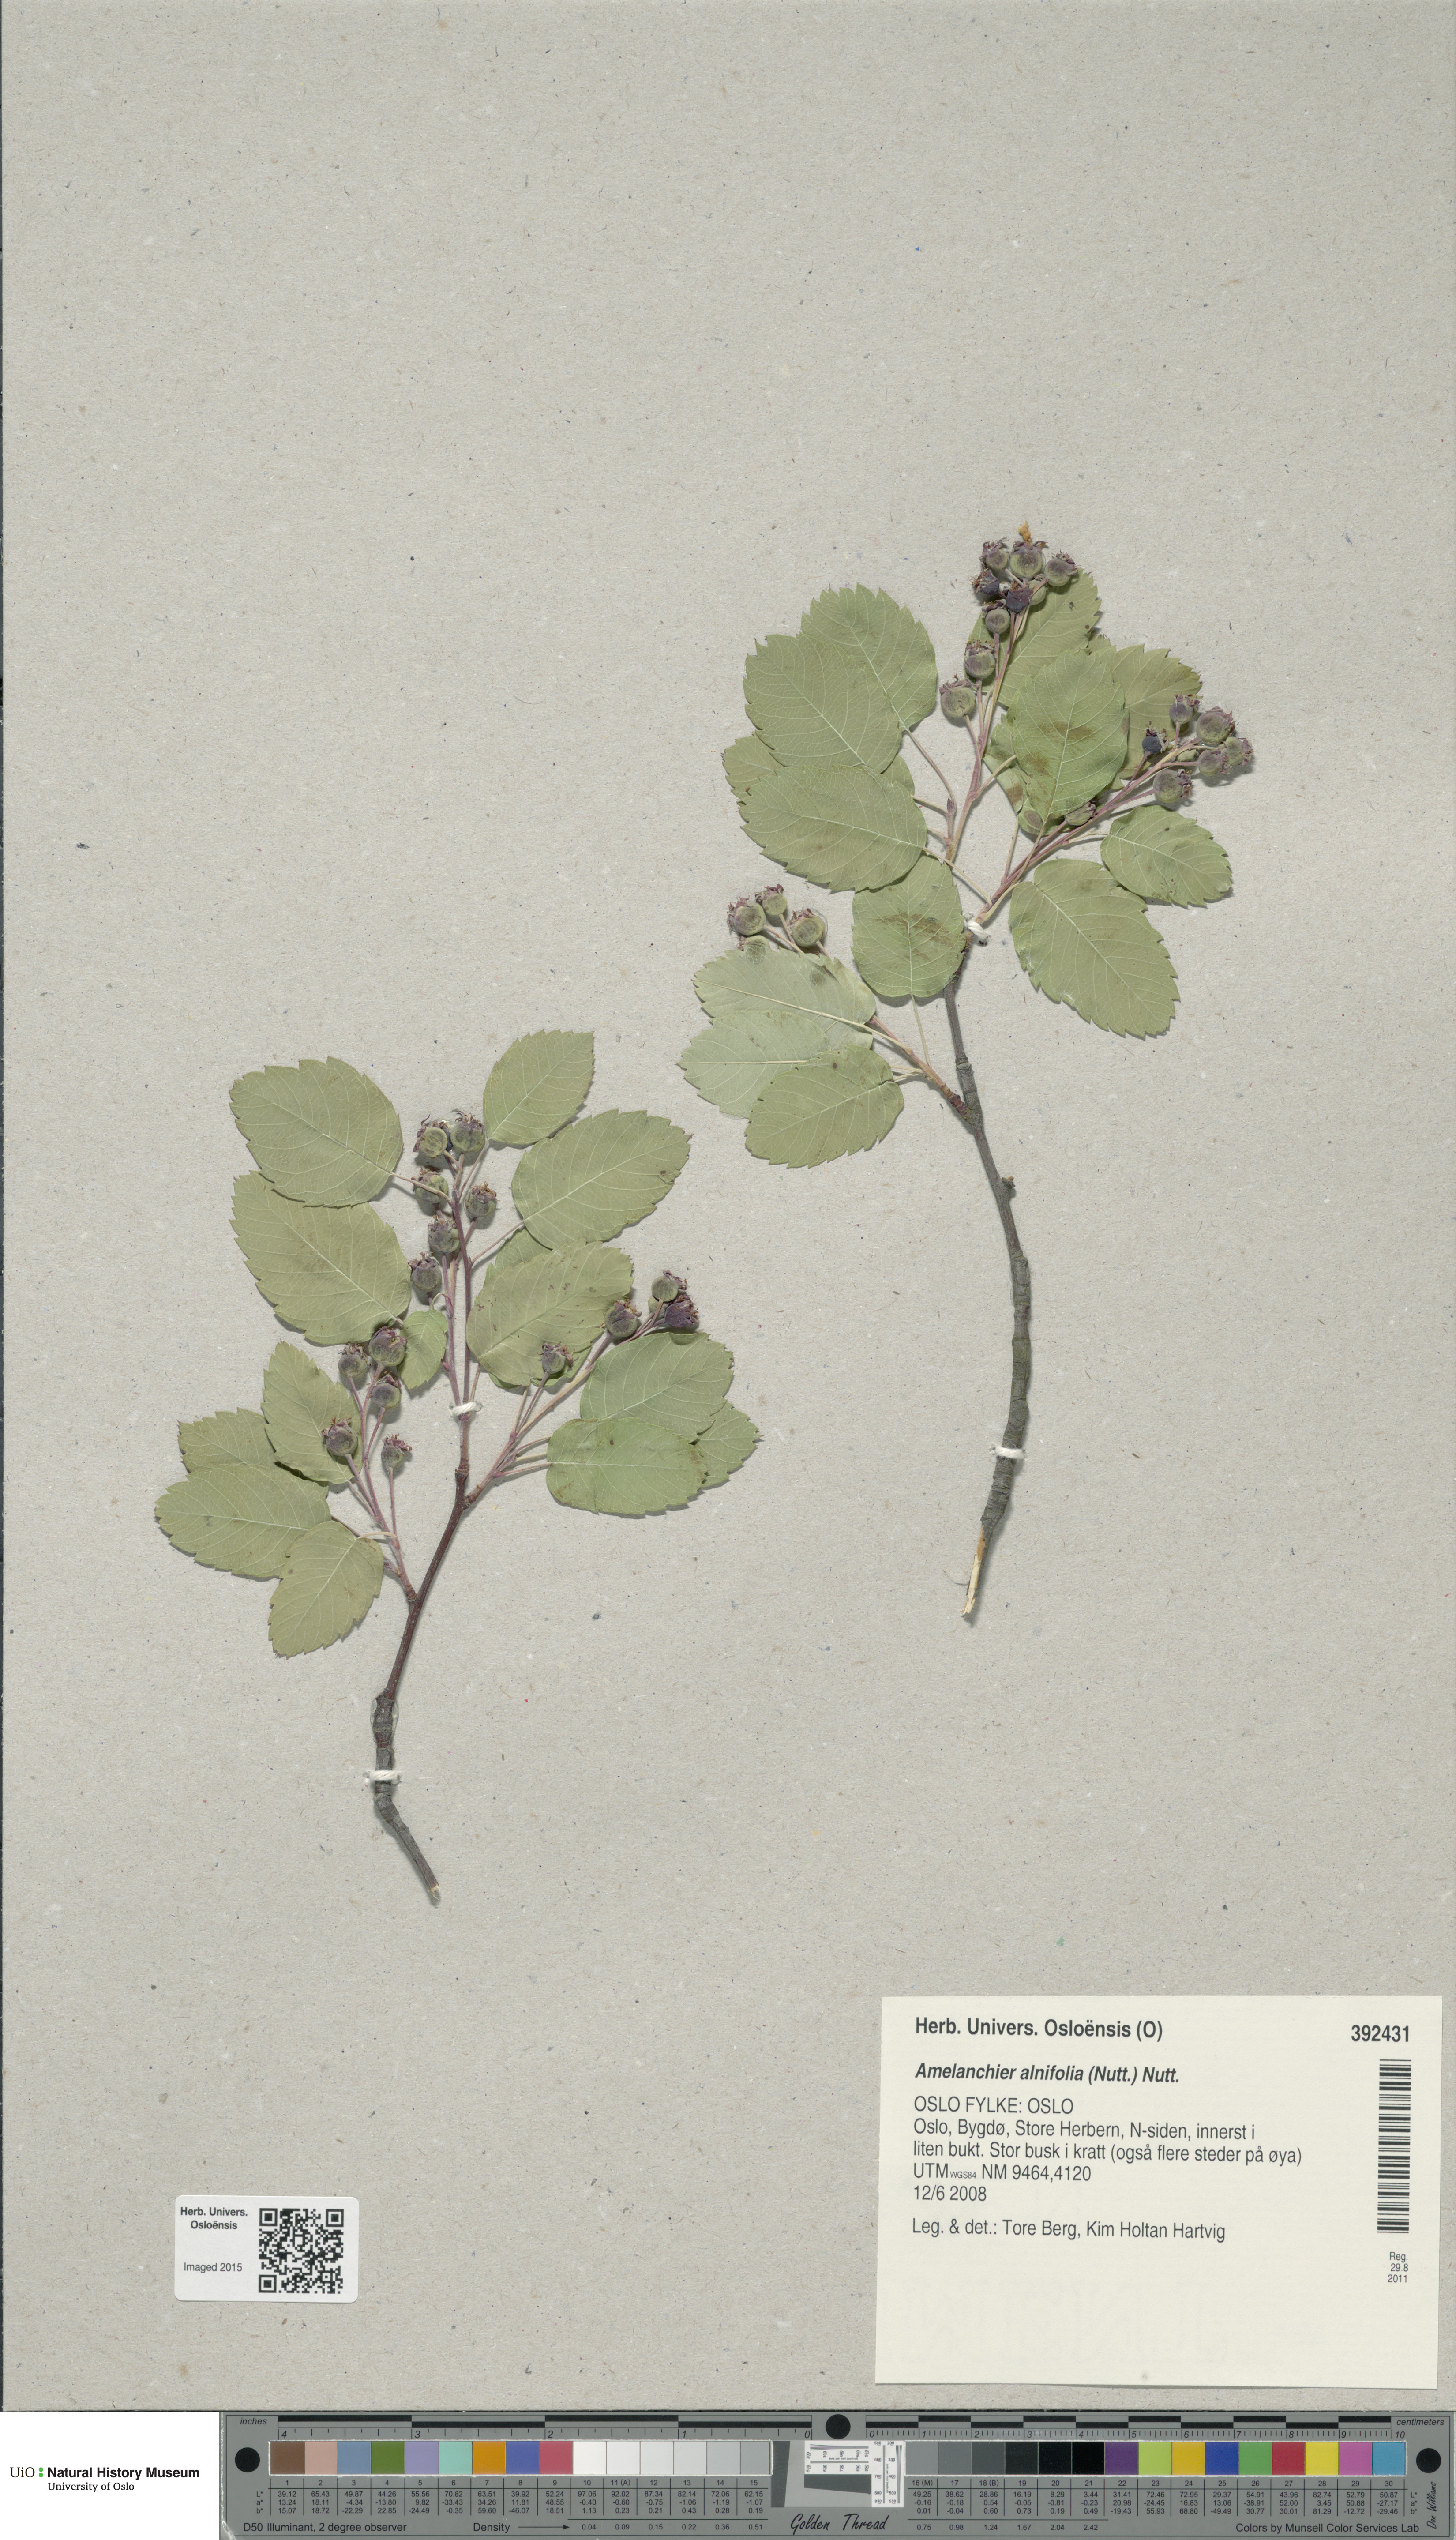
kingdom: Plantae
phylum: Tracheophyta
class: Magnoliopsida
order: Rosales
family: Rosaceae
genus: Amelanchier
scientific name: Amelanchier alnifolia
